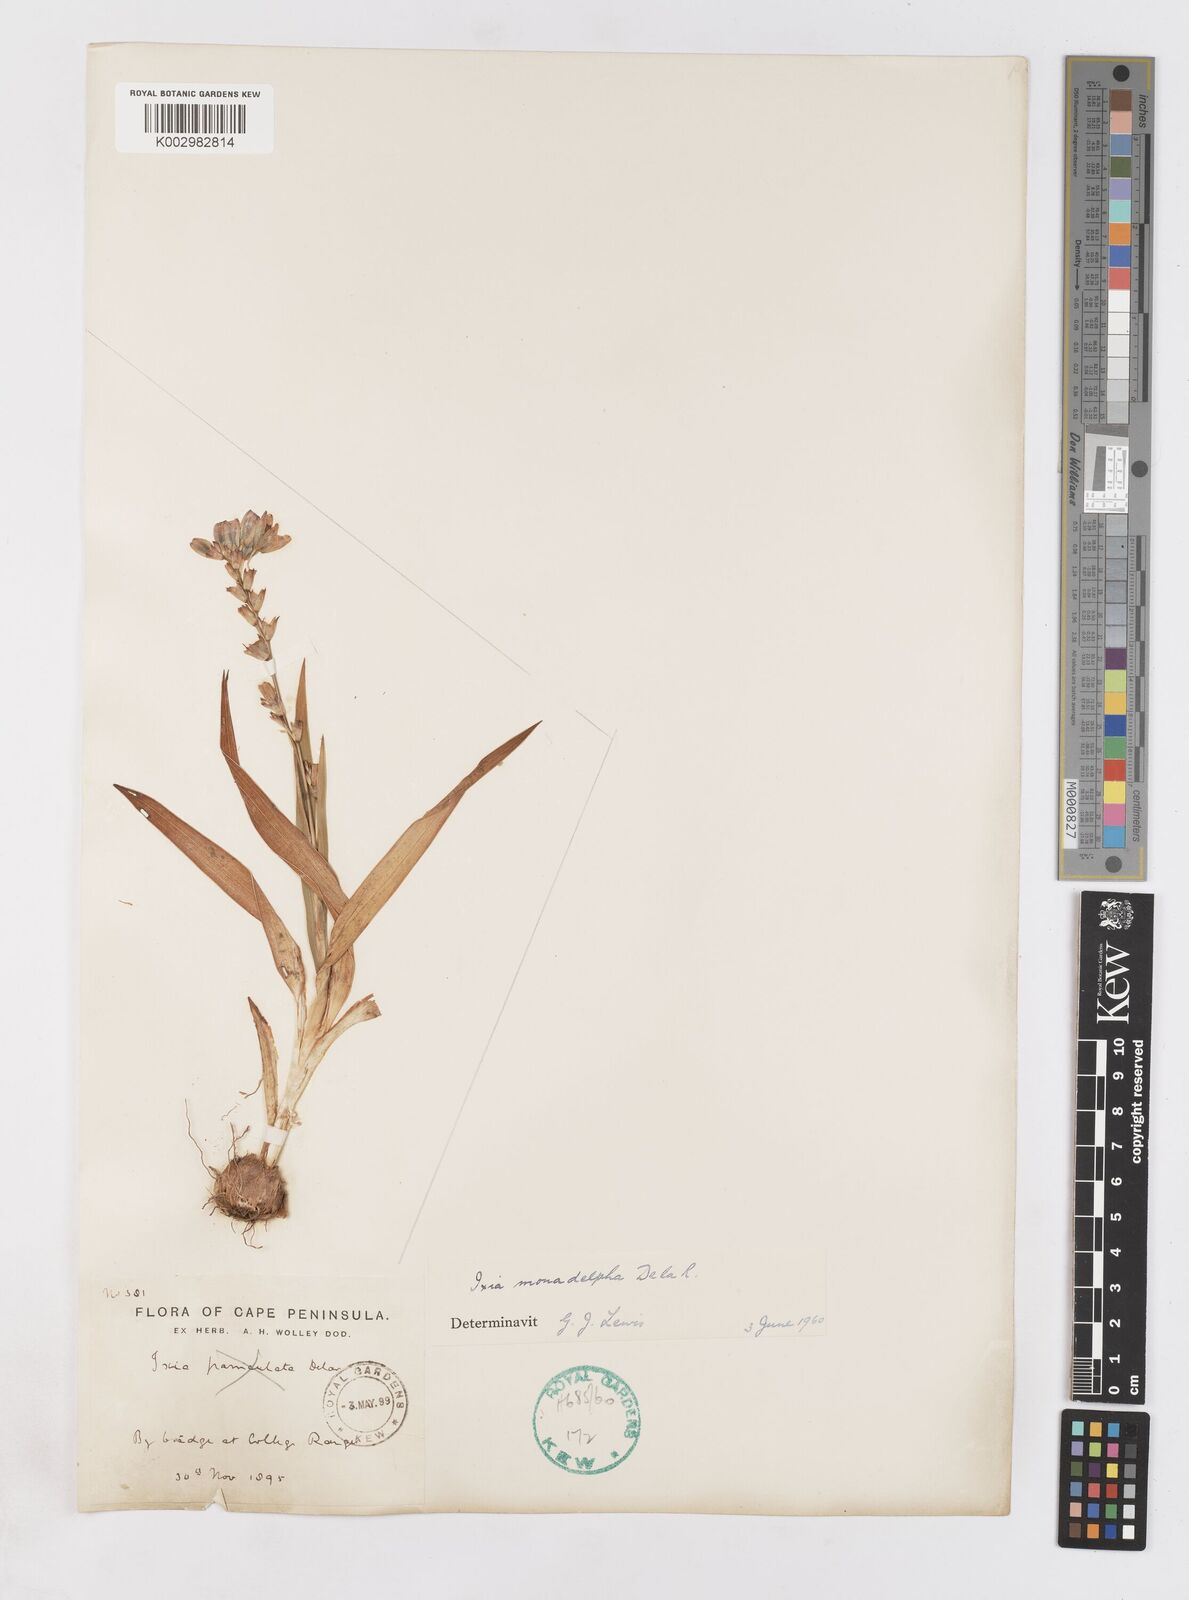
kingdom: Plantae
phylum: Tracheophyta
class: Liliopsida
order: Asparagales
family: Iridaceae
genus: Ixia
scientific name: Ixia monadelpha
